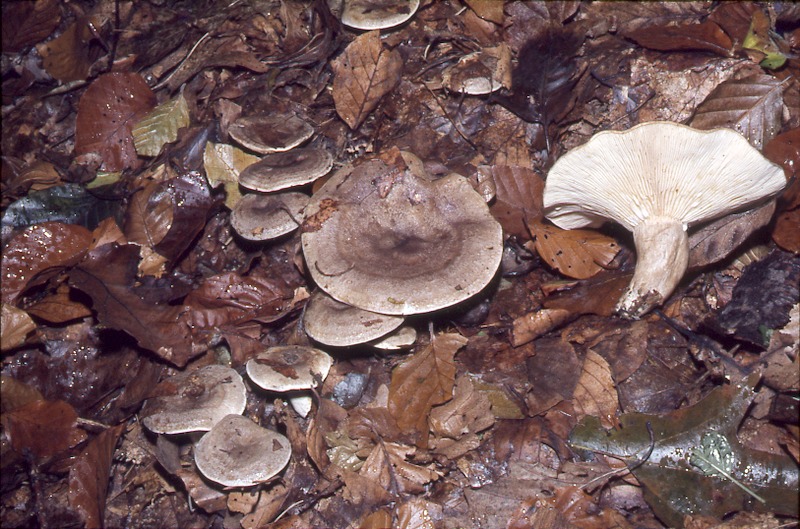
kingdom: Fungi
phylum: Basidiomycota
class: Agaricomycetes
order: Russulales
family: Russulaceae
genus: Lactarius
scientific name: Lactarius circellatus
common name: Circled milkcap
